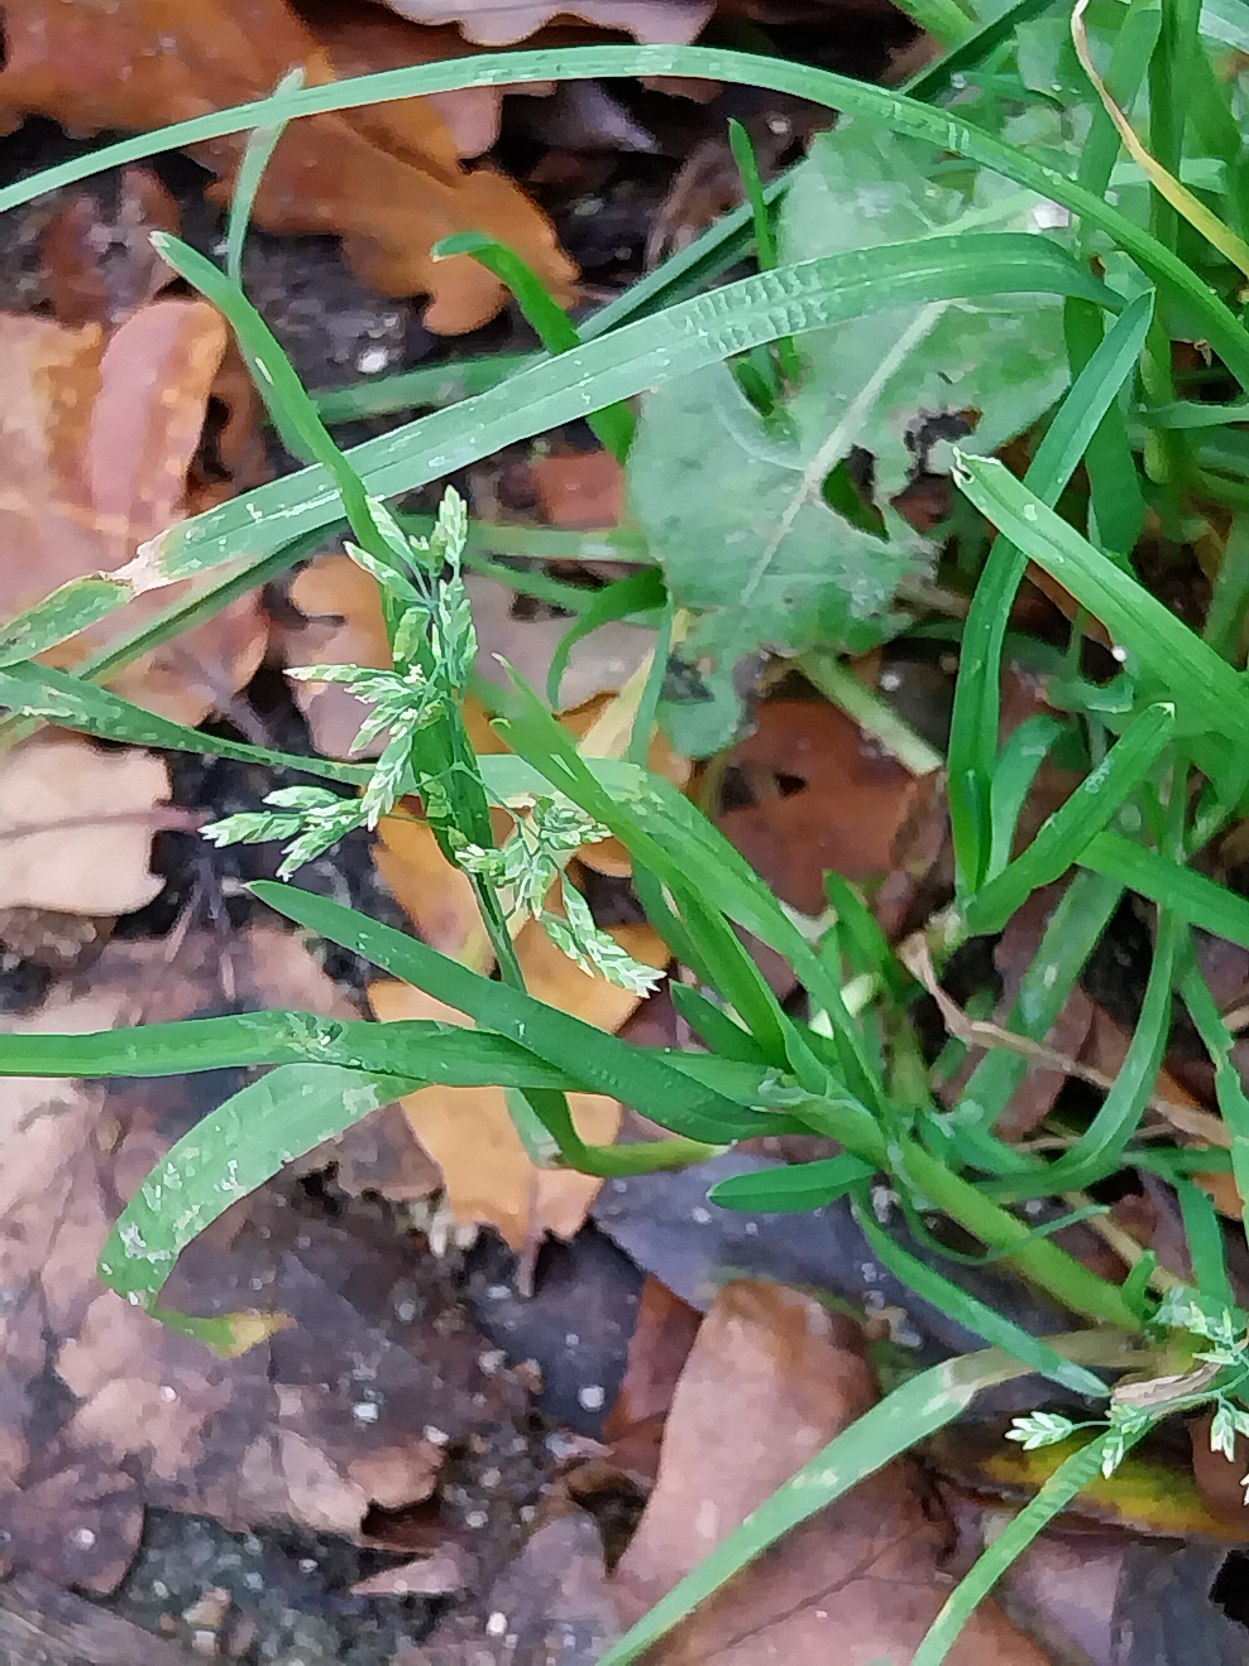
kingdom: Plantae
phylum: Tracheophyta
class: Liliopsida
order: Poales
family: Poaceae
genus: Poa
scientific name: Poa annua
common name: Enårig rapgræs
